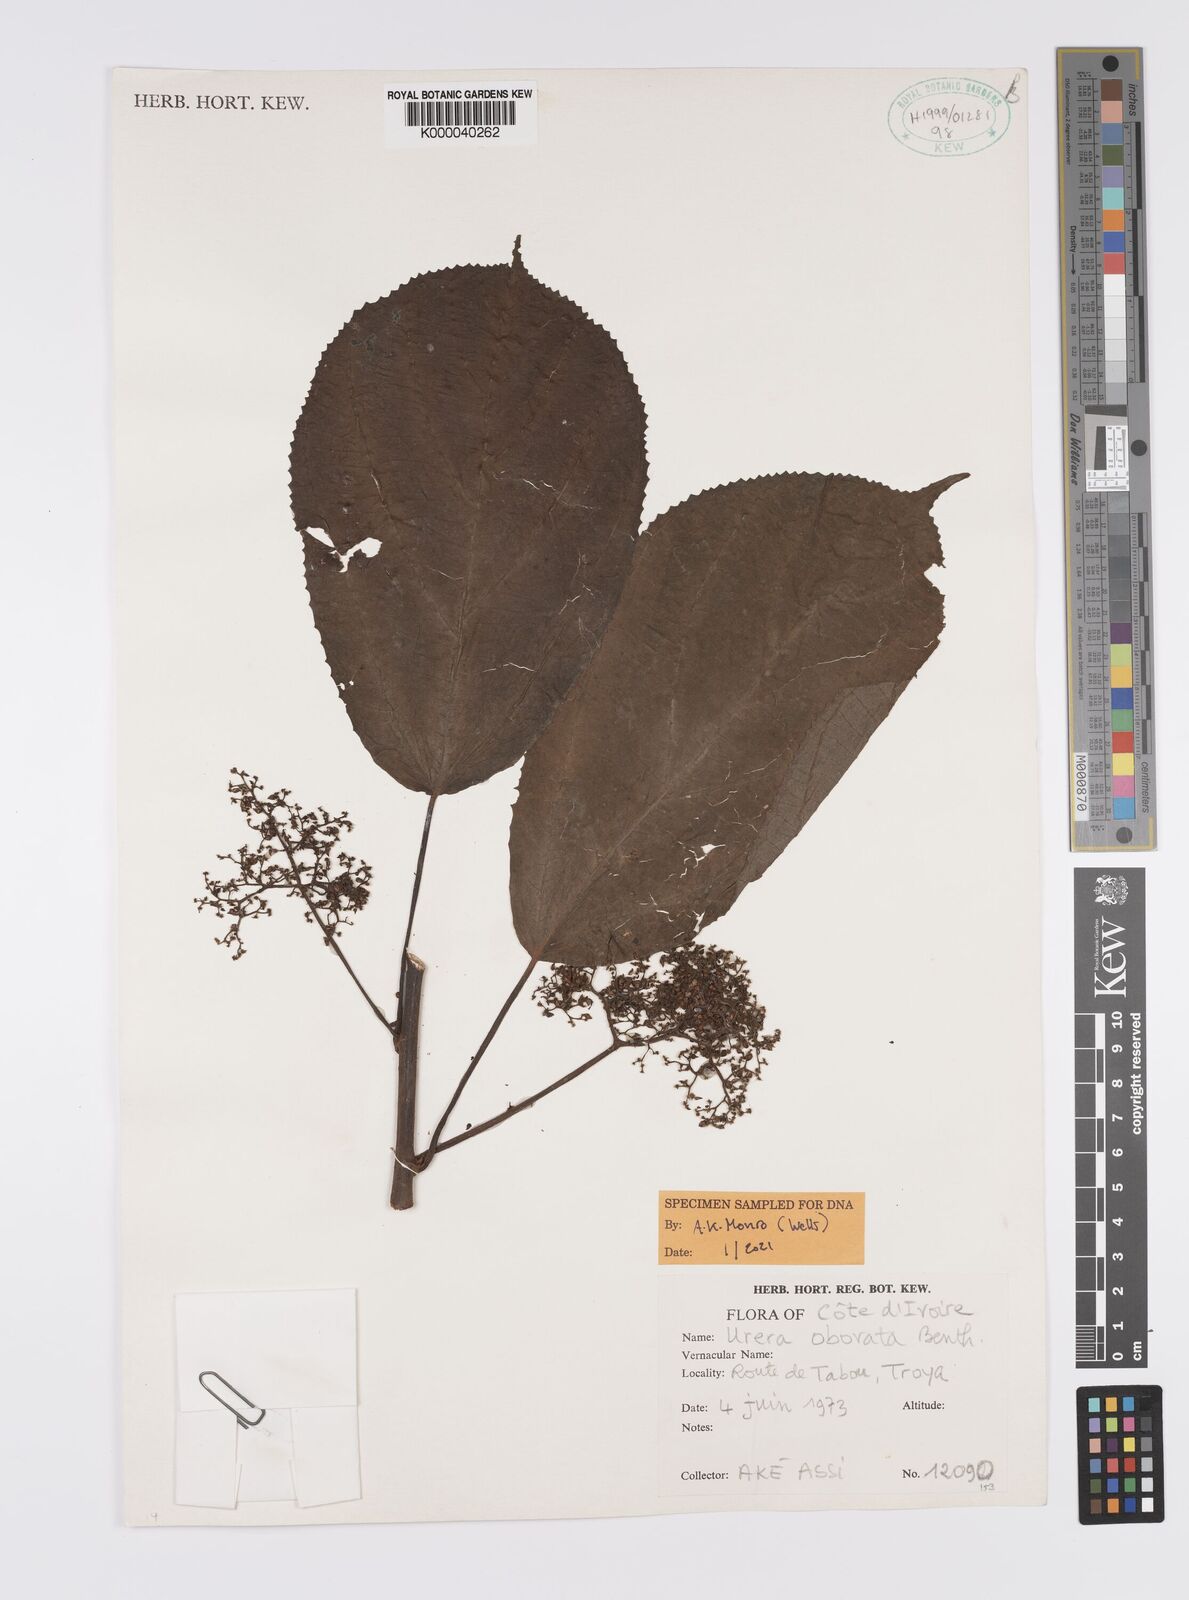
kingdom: Plantae
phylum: Tracheophyta
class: Magnoliopsida
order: Rosales
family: Urticaceae
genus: Scepocarpus
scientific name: Scepocarpus obovatus
